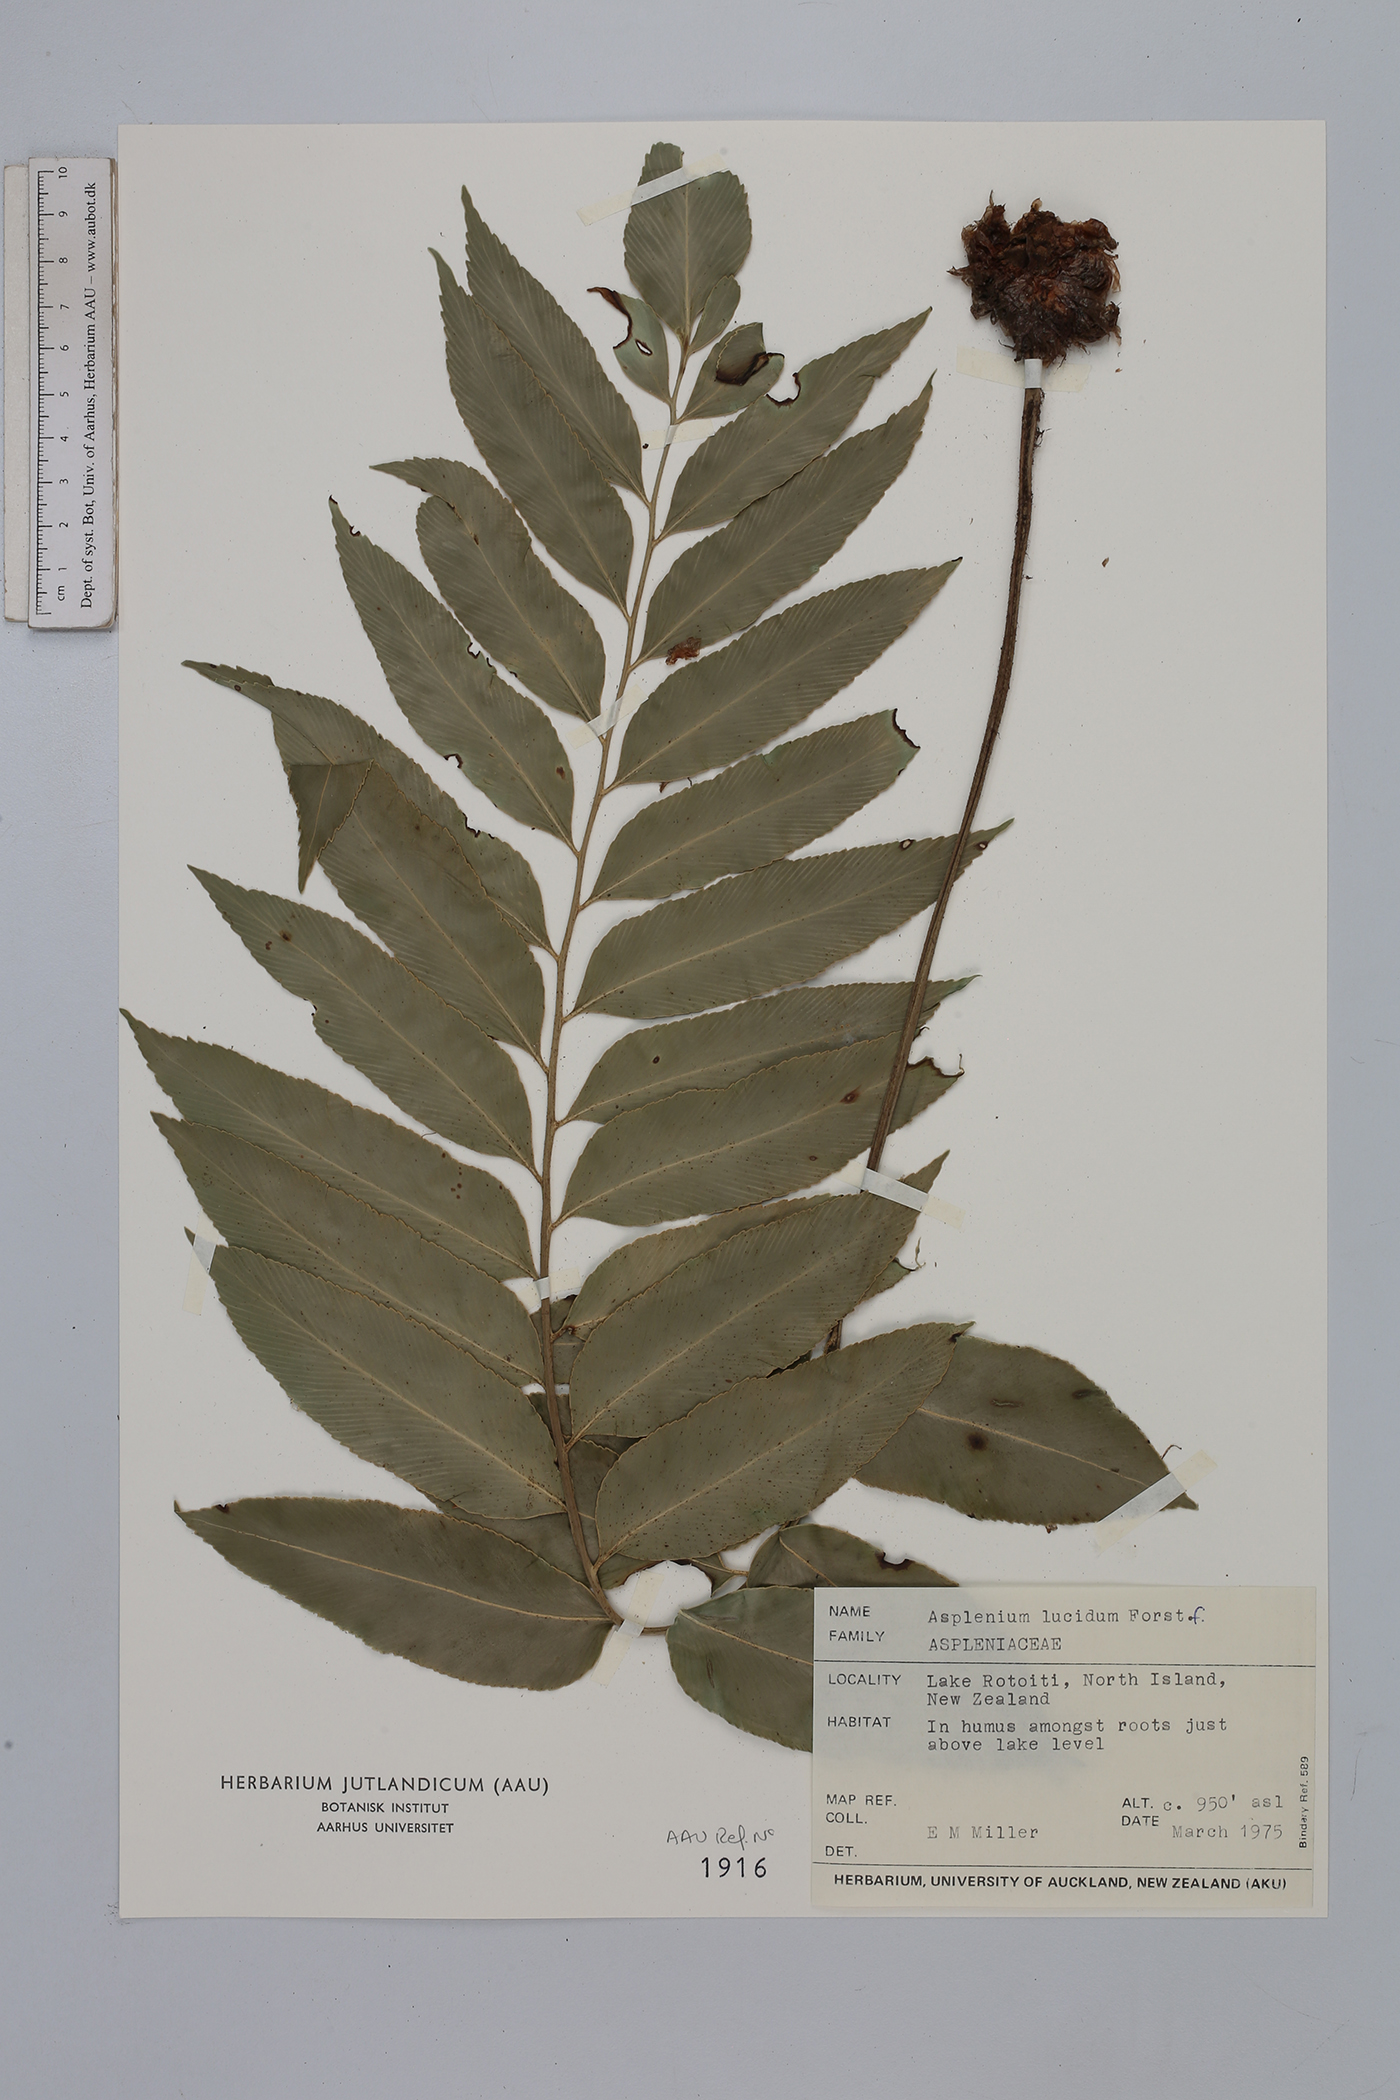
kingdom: Plantae
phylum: Tracheophyta
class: Polypodiopsida
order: Polypodiales
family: Aspleniaceae
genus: Asplenium
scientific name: Asplenium lucanum
